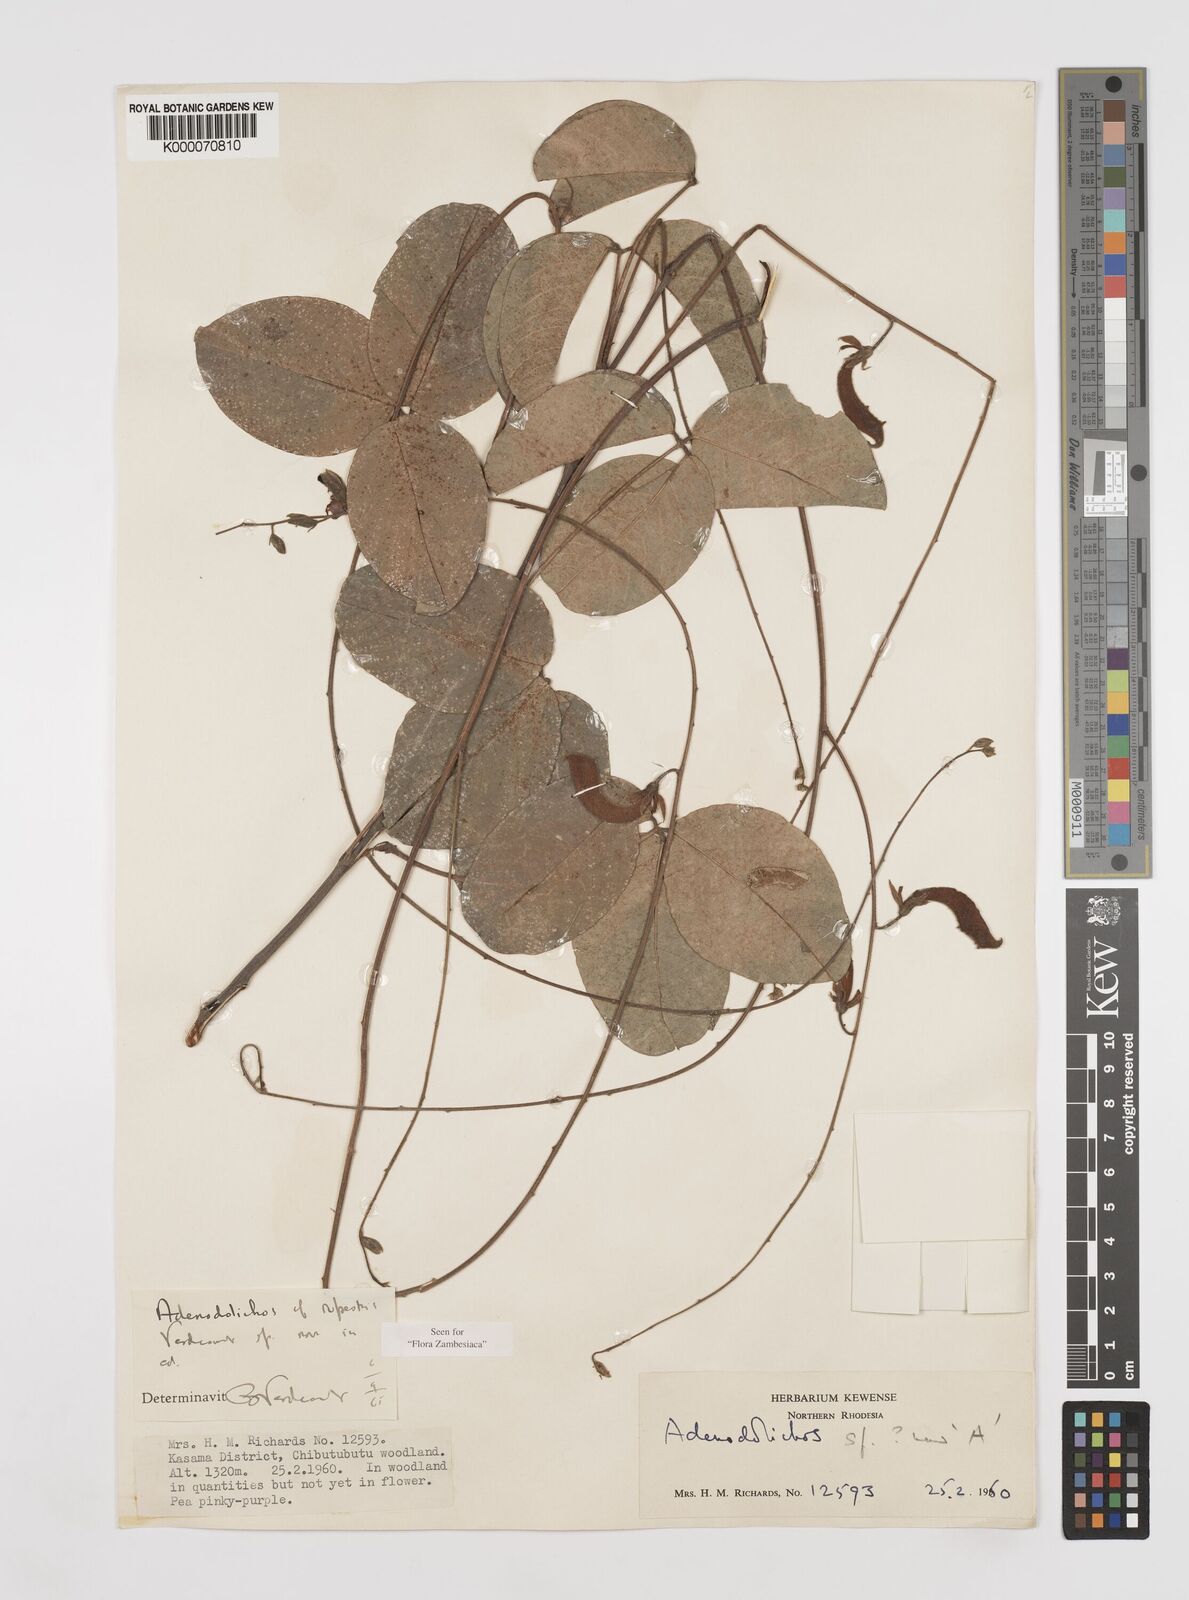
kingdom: Plantae
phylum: Tracheophyta
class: Magnoliopsida
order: Fabales
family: Fabaceae
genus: Adenodolichos
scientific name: Adenodolichos rupestris
